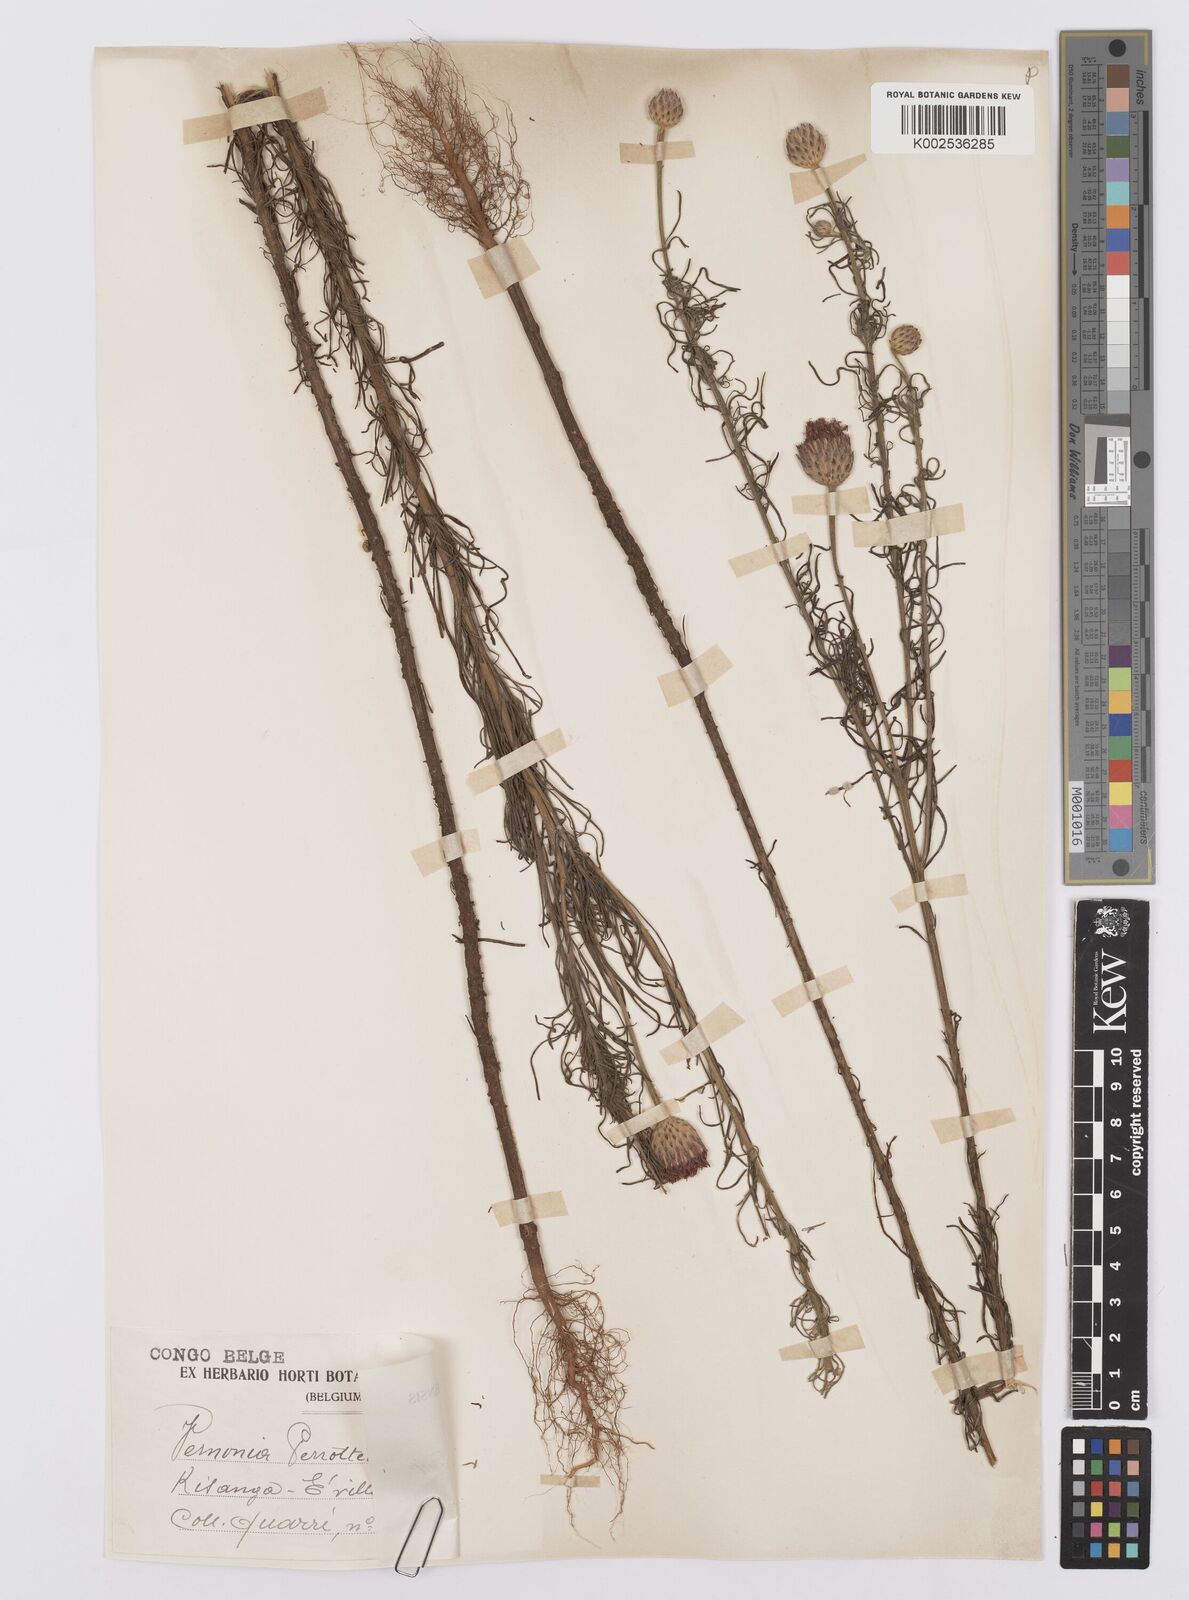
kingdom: Plantae
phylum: Tracheophyta
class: Magnoliopsida
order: Asterales
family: Asteraceae
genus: Crystallopollen
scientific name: Crystallopollen serratuloides
